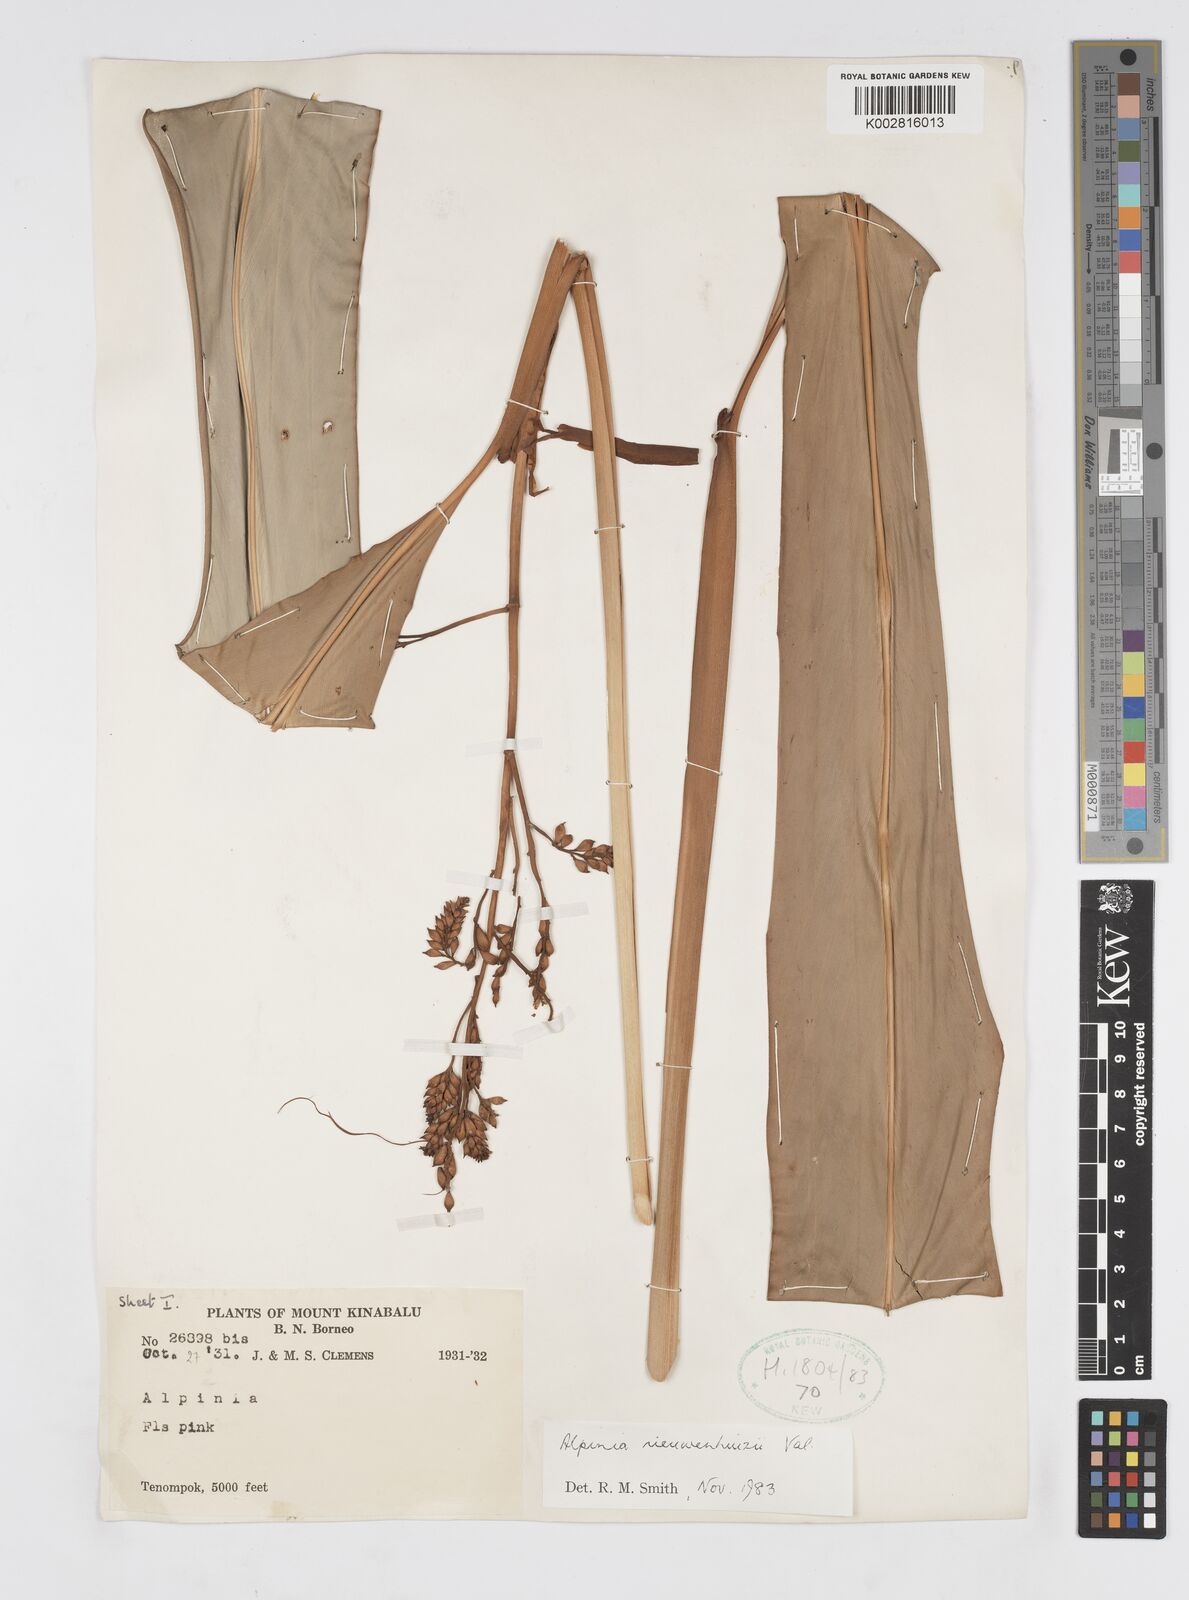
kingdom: Plantae
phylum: Tracheophyta
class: Liliopsida
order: Zingiberales
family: Zingiberaceae
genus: Alpinia
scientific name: Alpinia nieuwenhuizii
